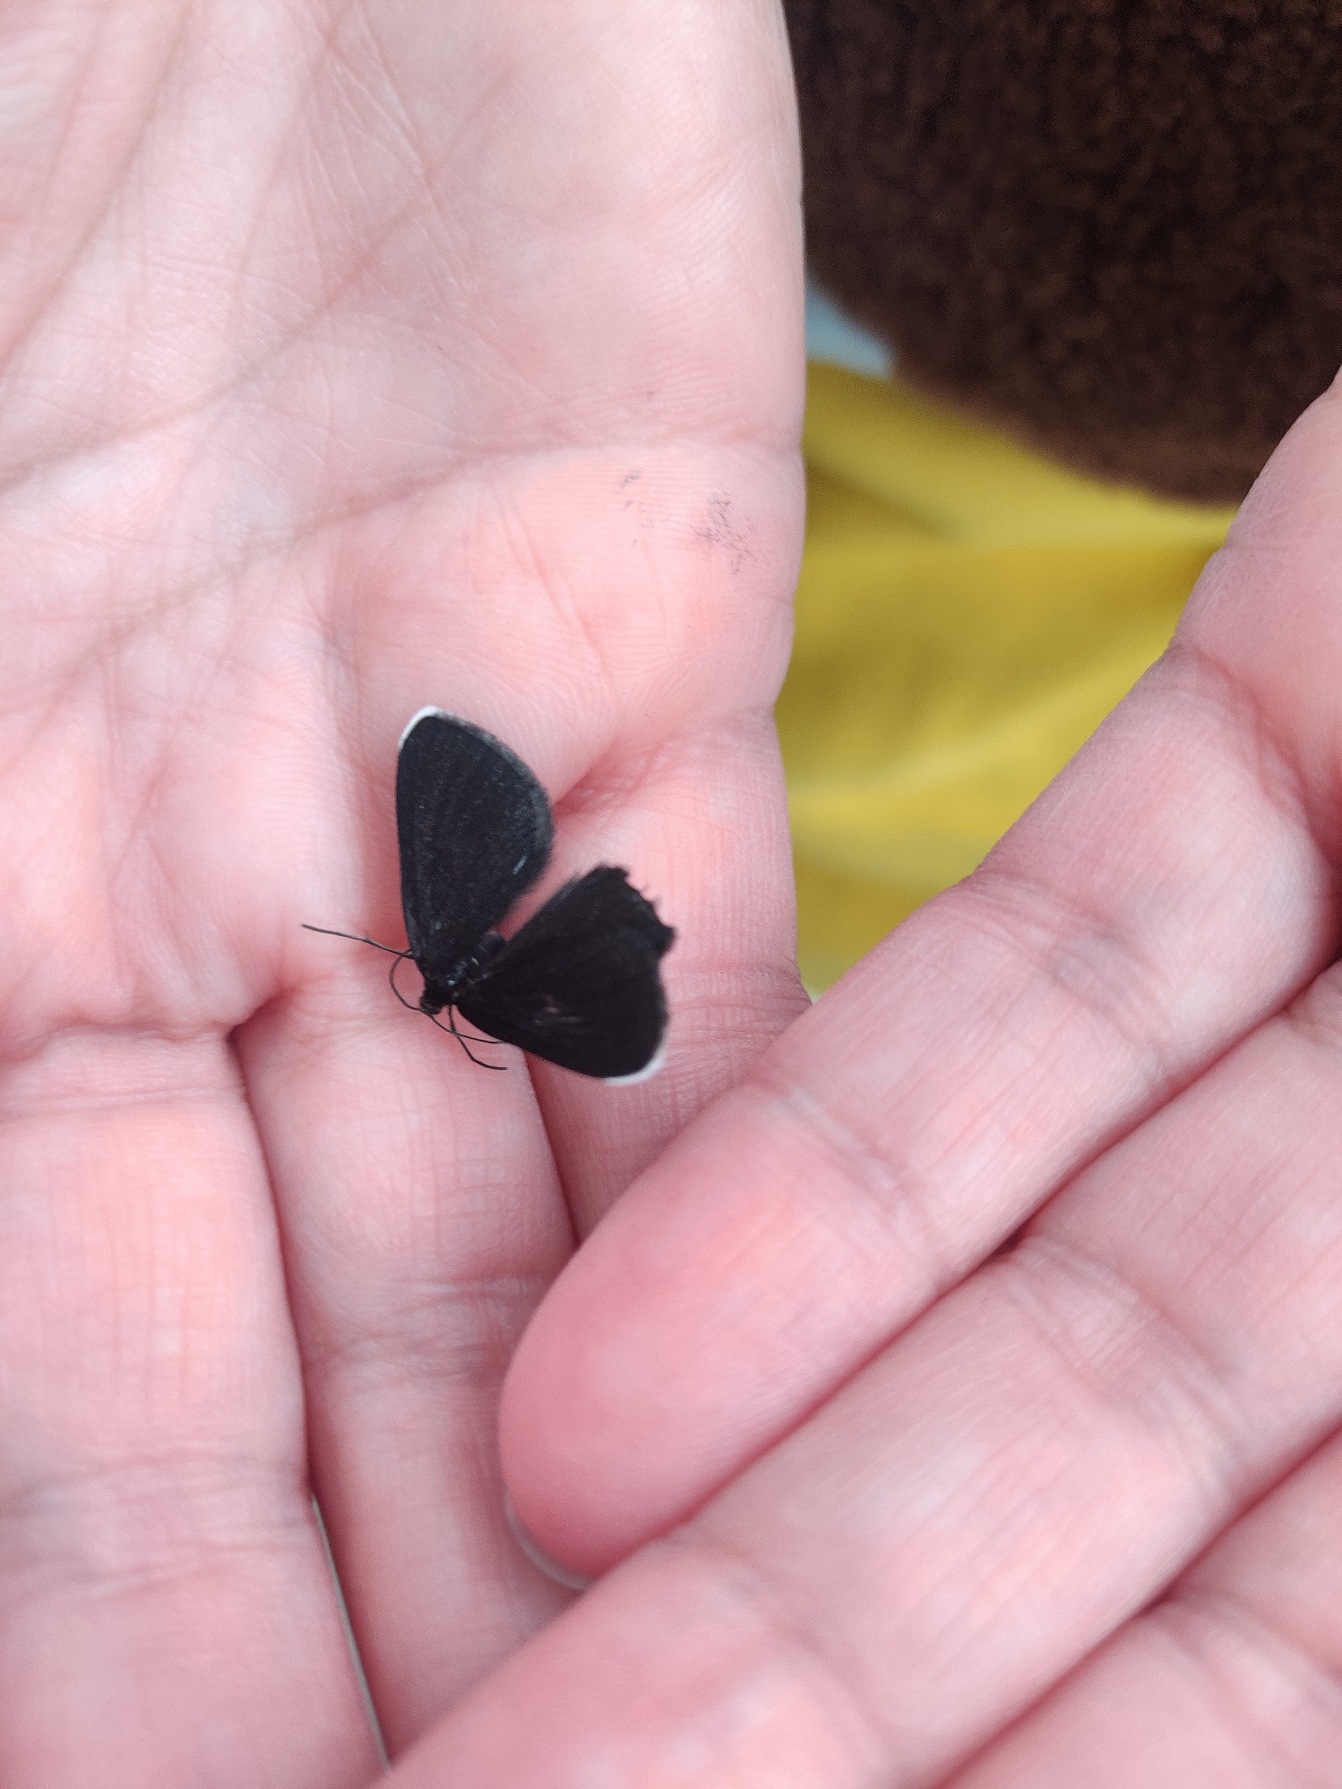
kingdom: Animalia
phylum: Arthropoda
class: Insecta
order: Lepidoptera
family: Geometridae
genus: Odezia
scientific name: Odezia atrata
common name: Sort måler
